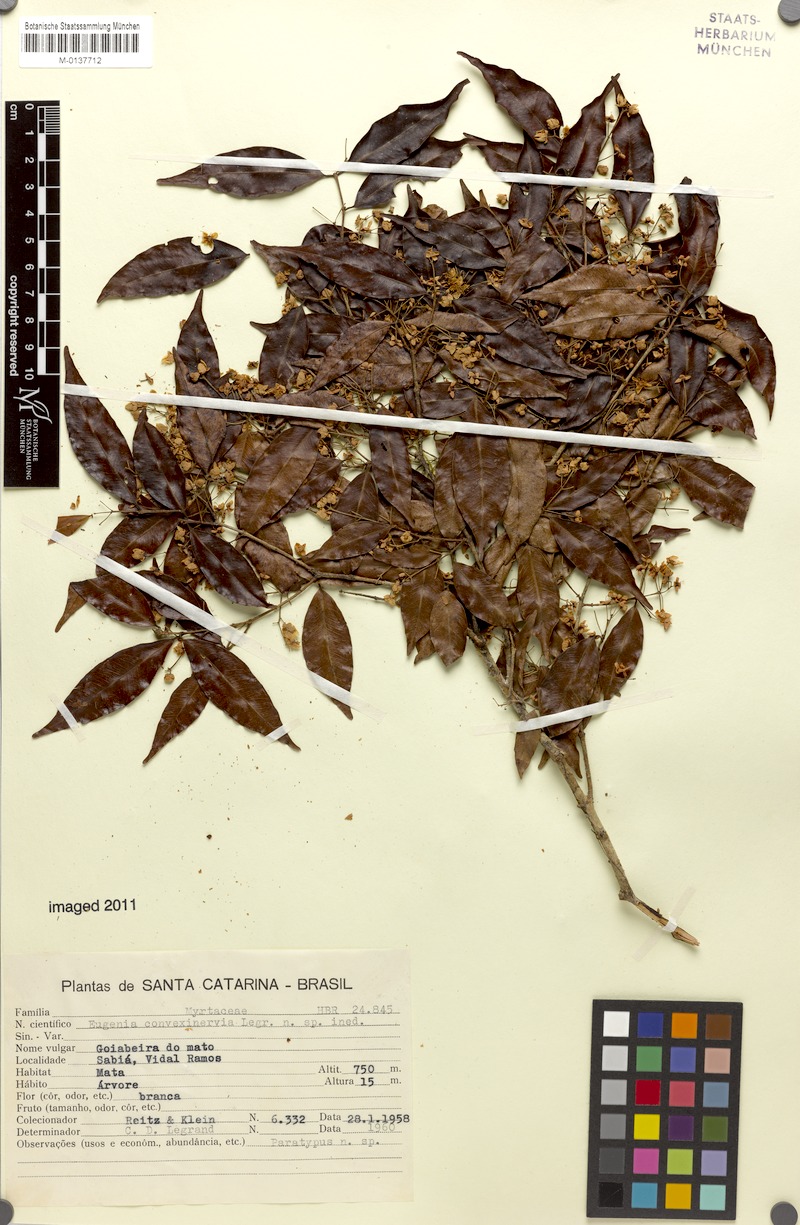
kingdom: Plantae
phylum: Tracheophyta
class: Magnoliopsida
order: Myrtales
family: Myrtaceae
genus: Eugenia
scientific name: Eugenia convexinervia
